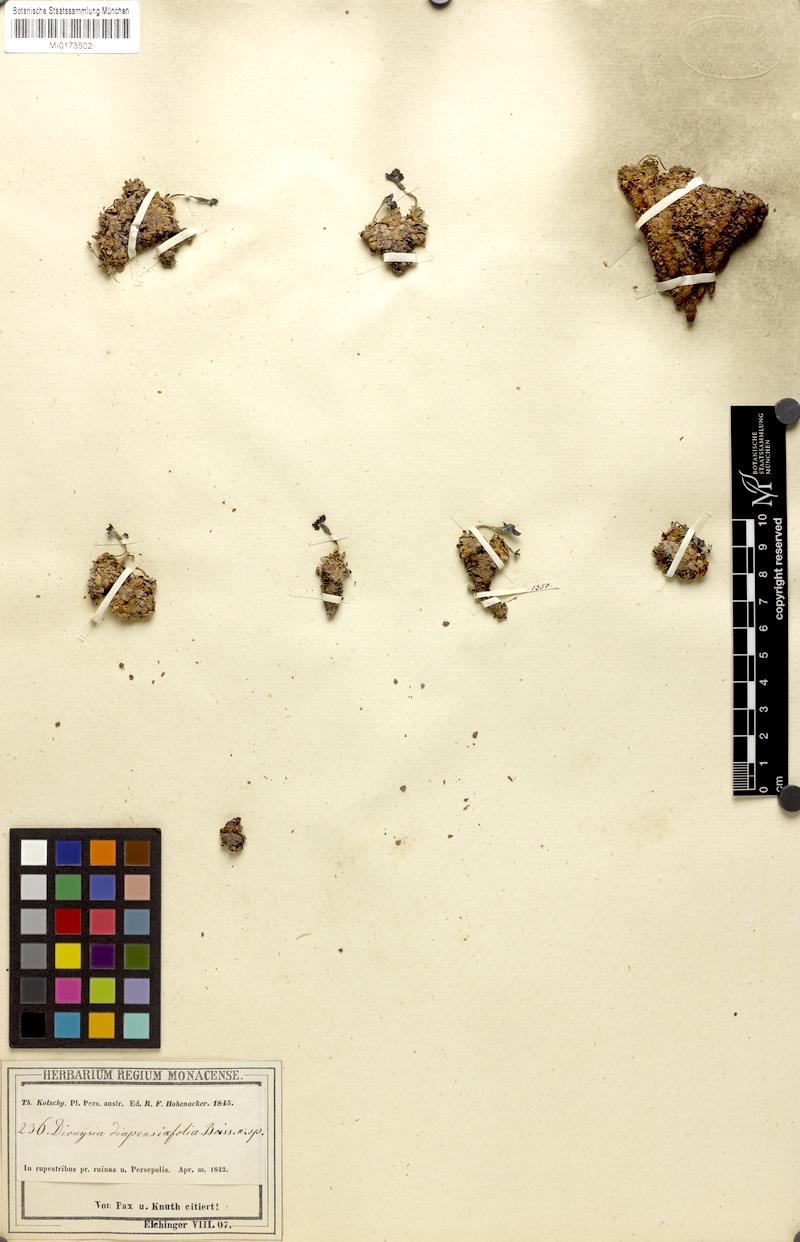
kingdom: Plantae
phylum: Tracheophyta
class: Magnoliopsida
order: Ericales
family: Primulaceae
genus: Dionysia
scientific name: Dionysia diapensiifolia
